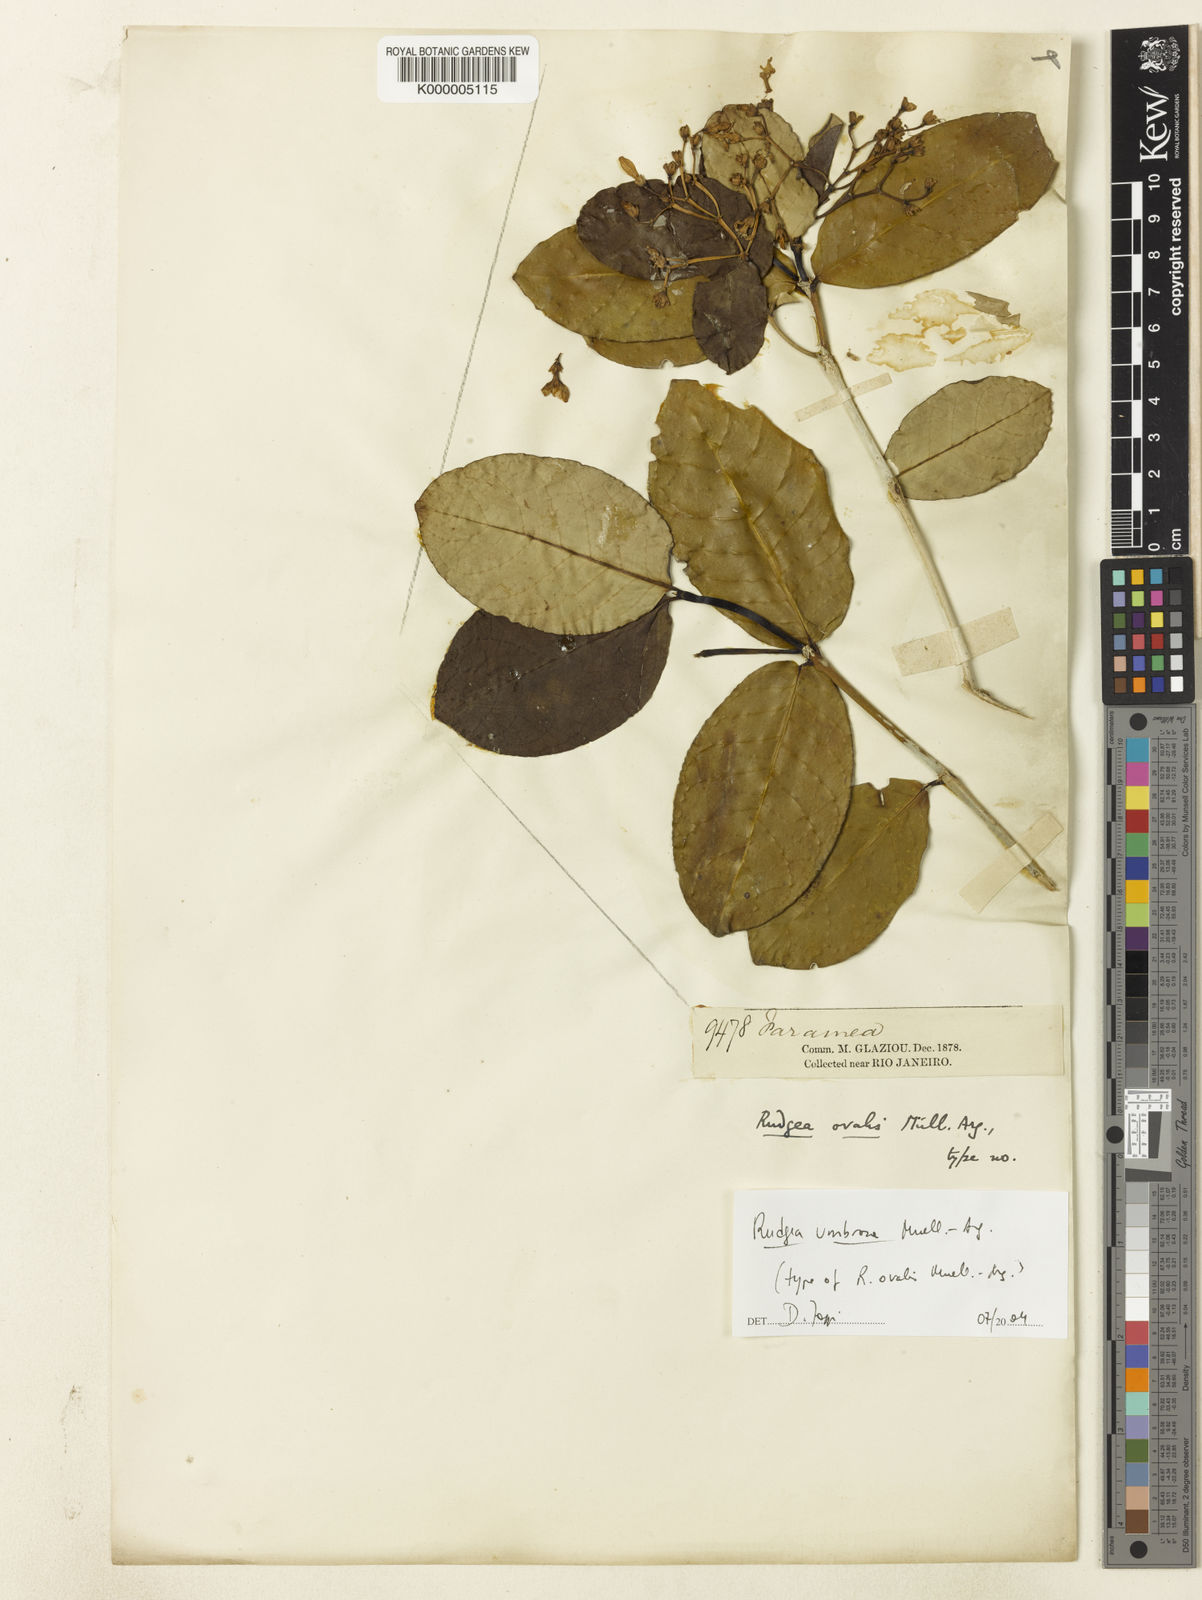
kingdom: Plantae
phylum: Tracheophyta
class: Magnoliopsida
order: Gentianales
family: Rubiaceae
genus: Rudgea
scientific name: Rudgea
